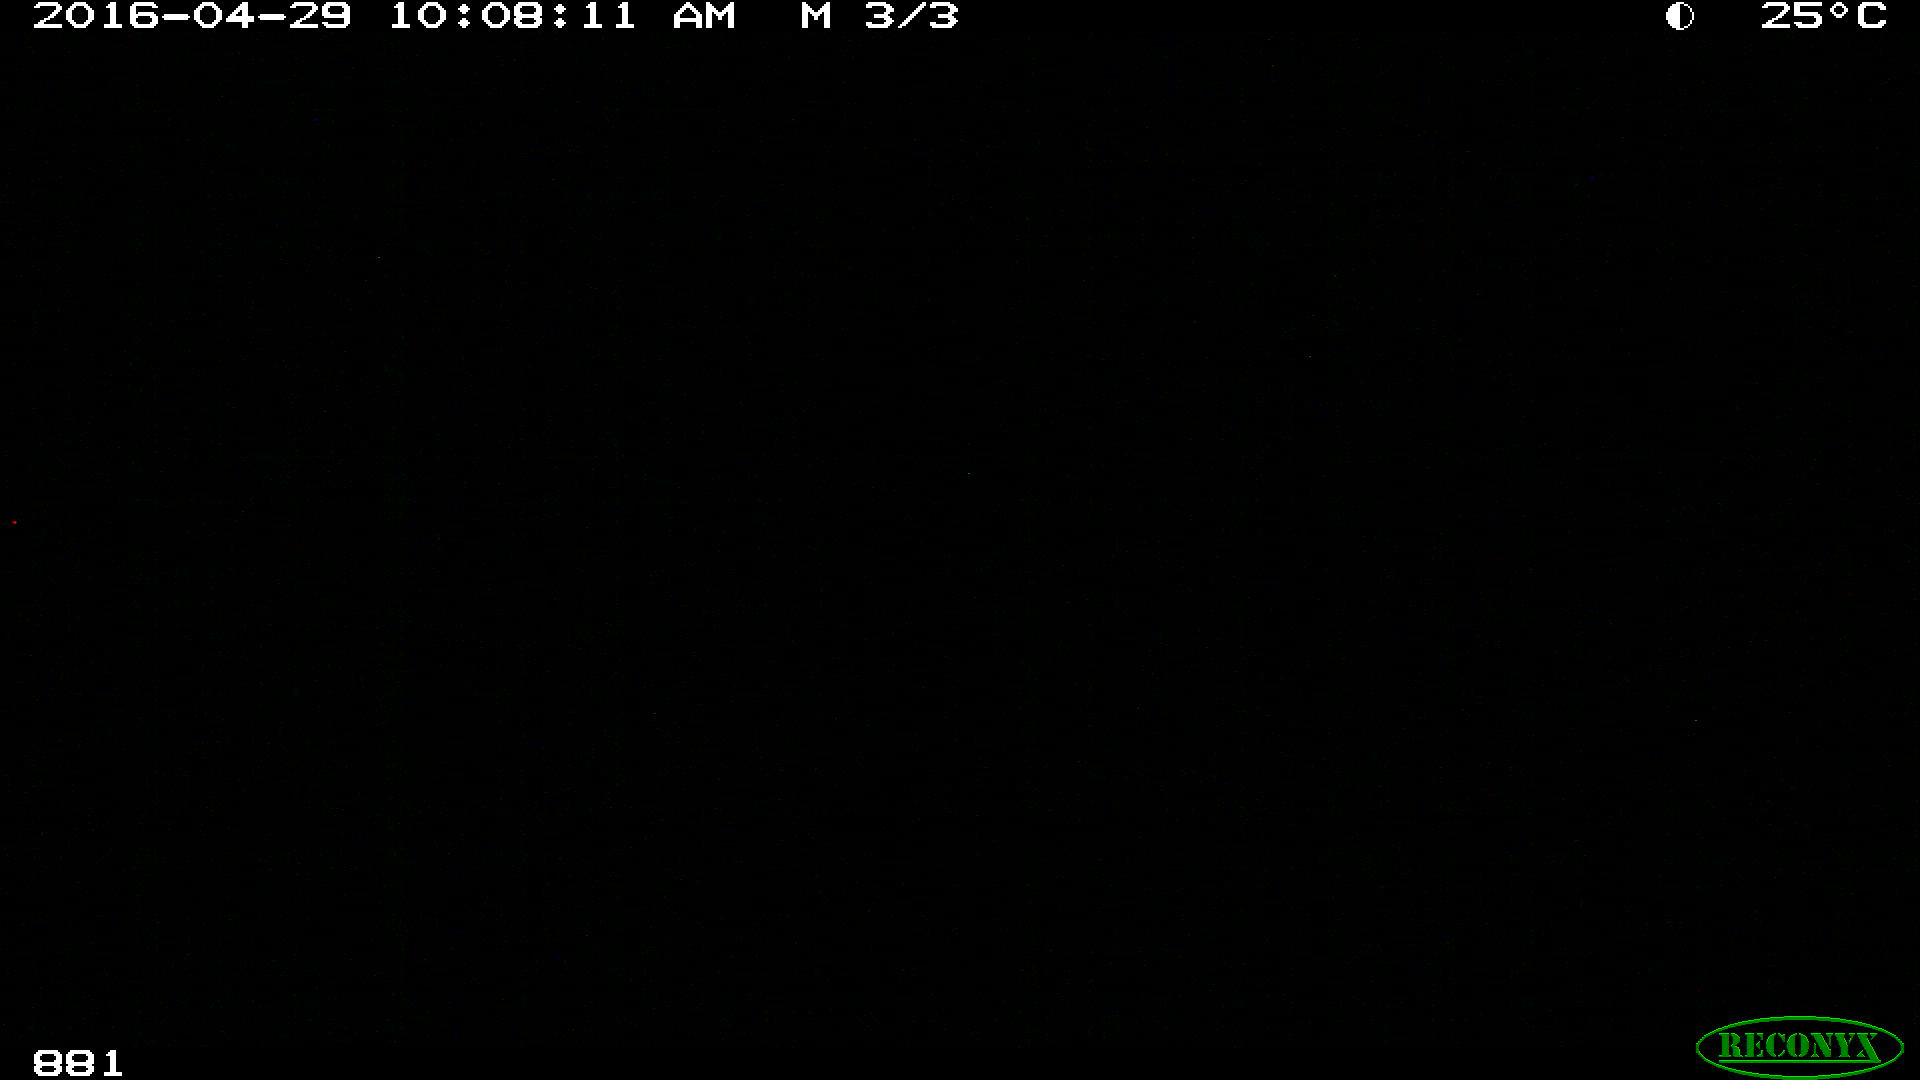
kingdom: Animalia
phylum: Chordata
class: Mammalia
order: Perissodactyla
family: Equidae
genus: Equus
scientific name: Equus caballus
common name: Horse
